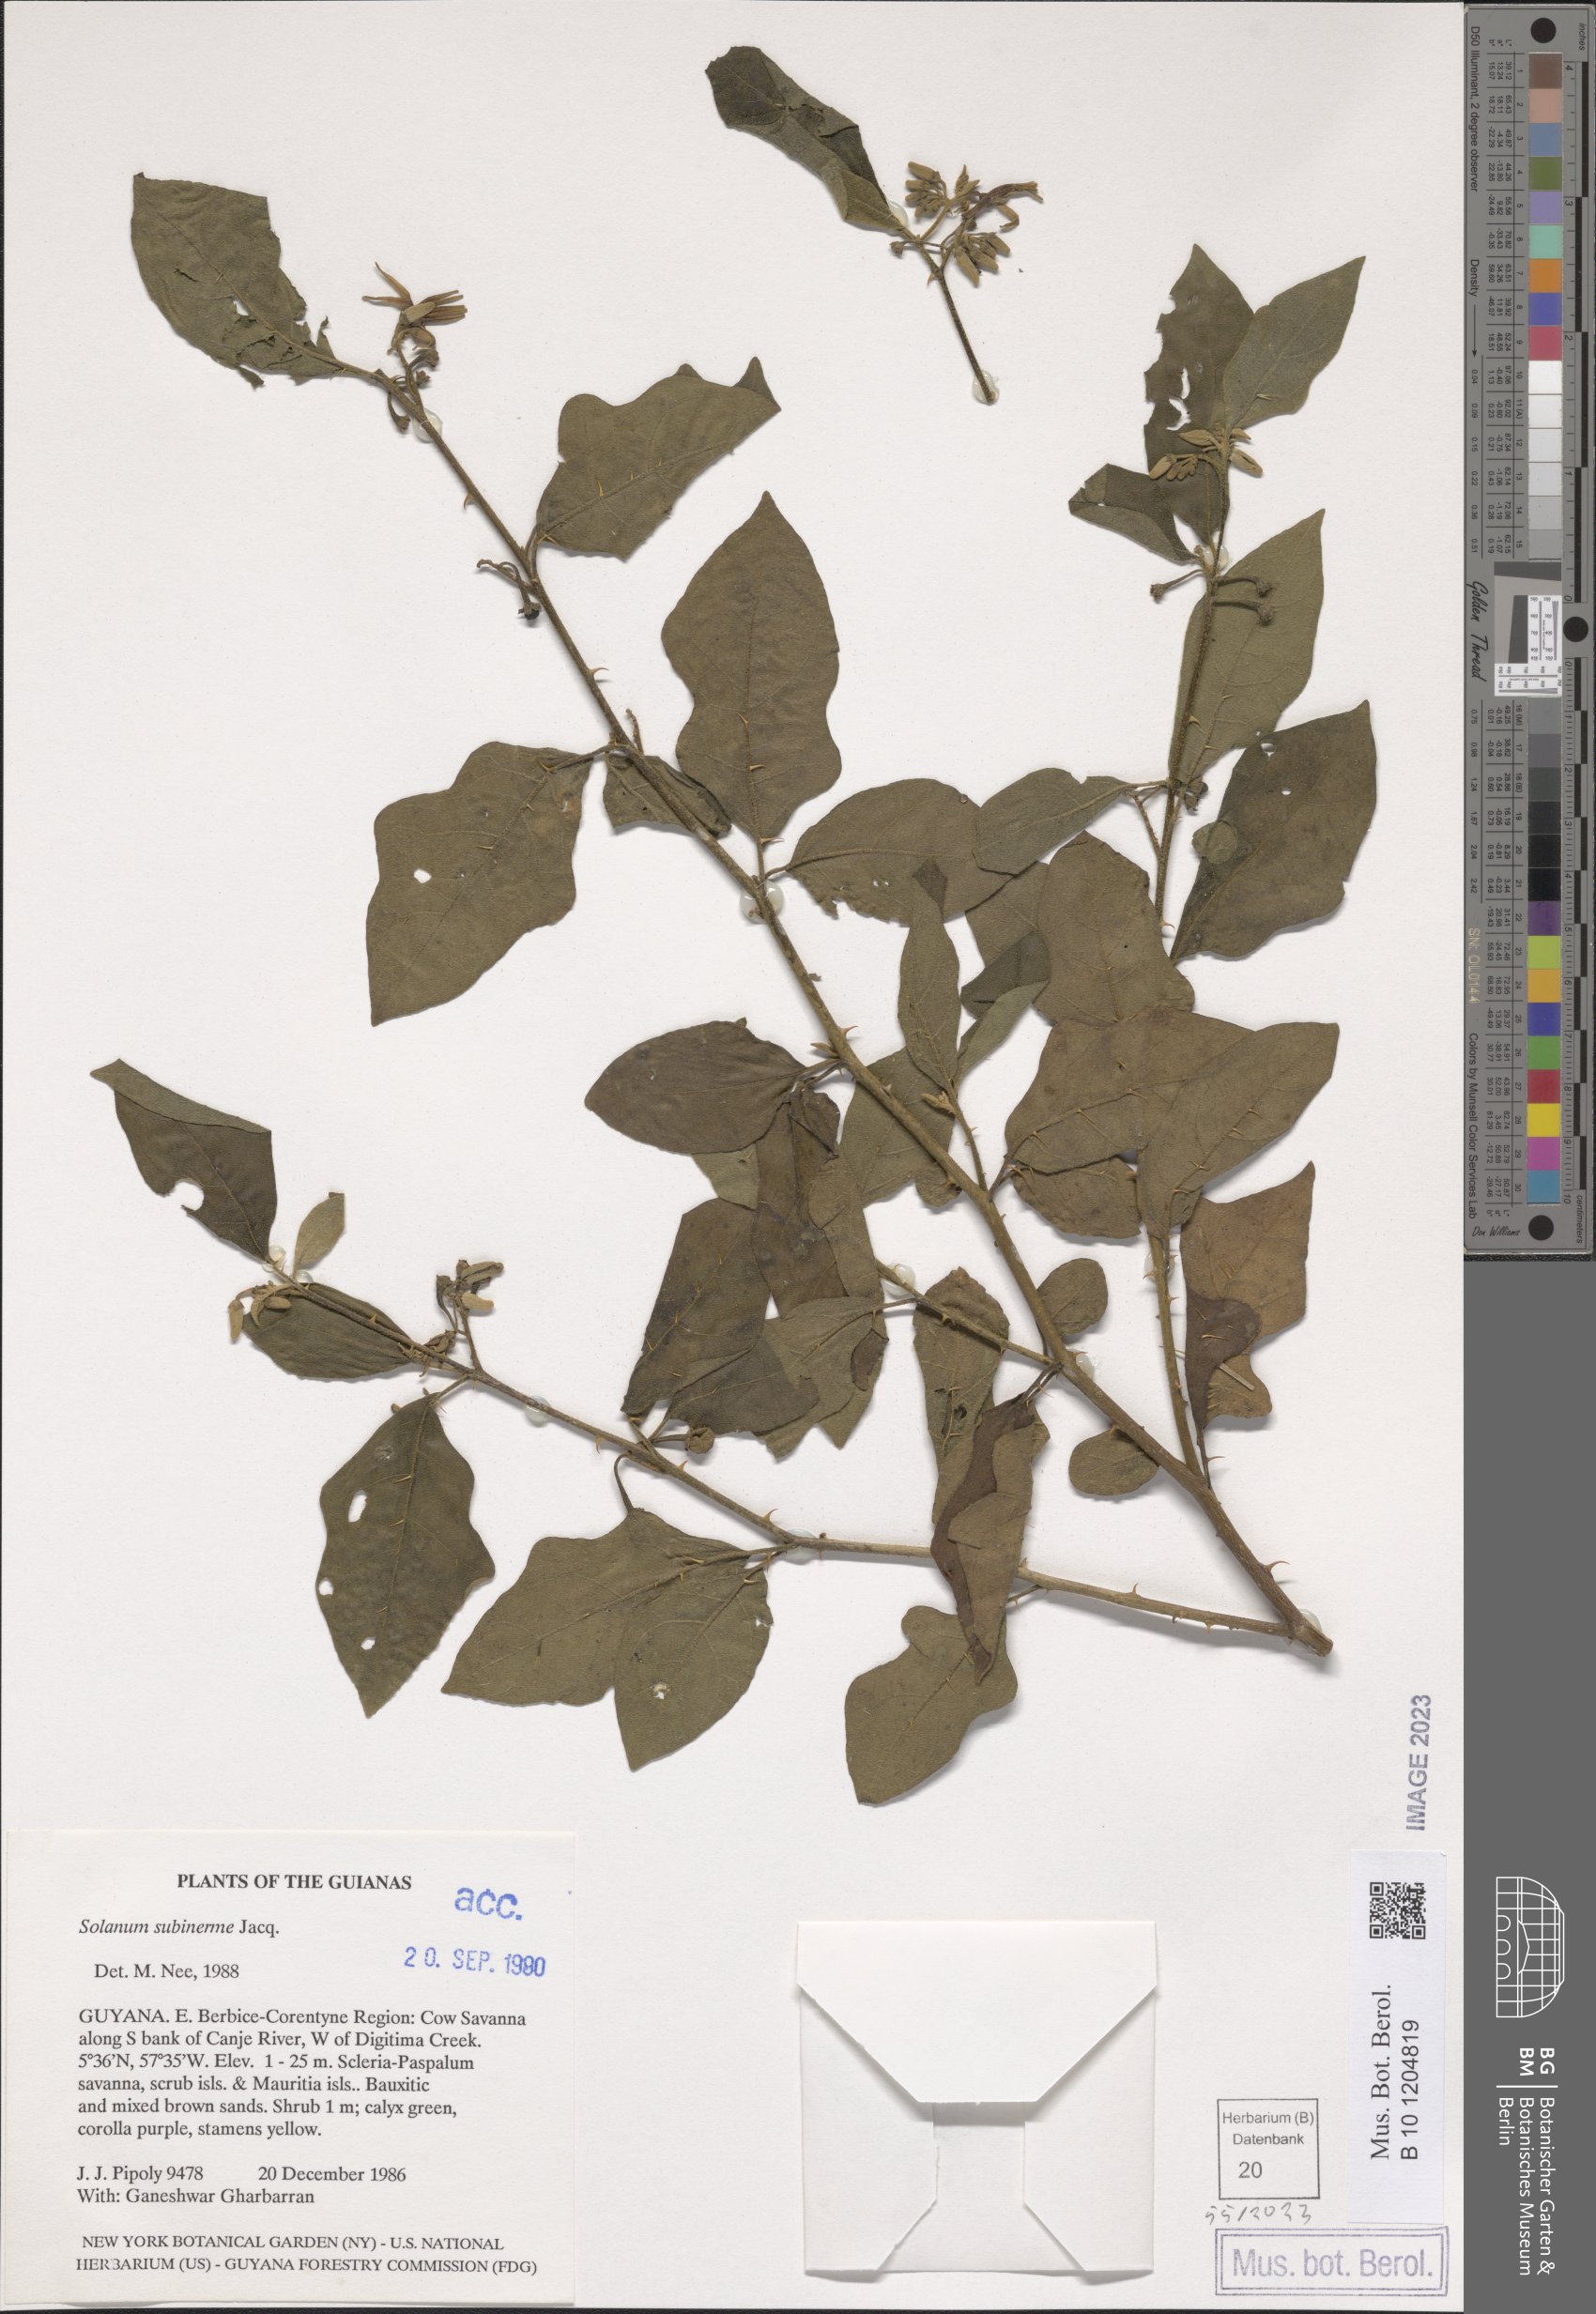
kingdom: Plantae
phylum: Tracheophyta
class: Magnoliopsida
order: Solanales
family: Solanaceae
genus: Solanum
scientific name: Solanum subinerme
